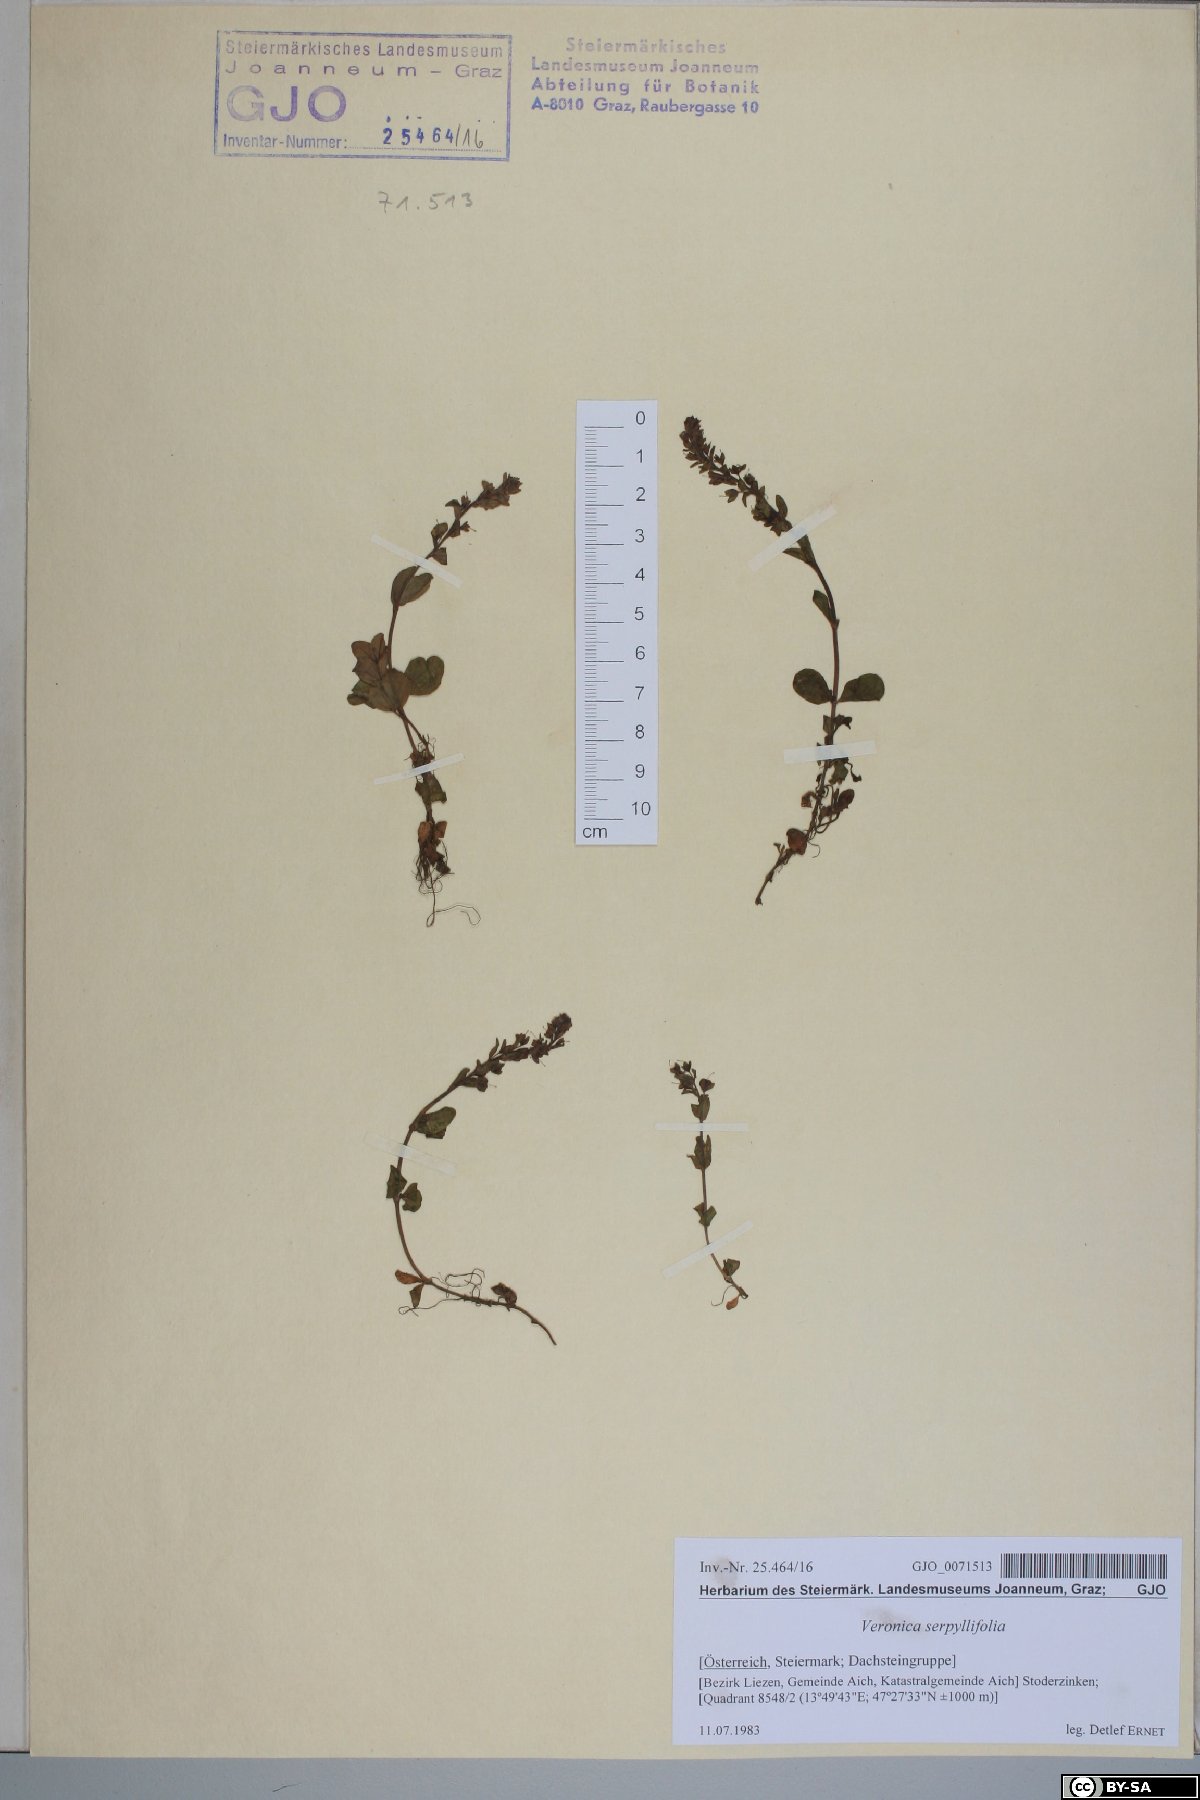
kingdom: Plantae
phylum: Tracheophyta
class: Magnoliopsida
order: Lamiales
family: Plantaginaceae
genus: Veronica
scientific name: Veronica serpyllifolia
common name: Thyme-leaved speedwell
